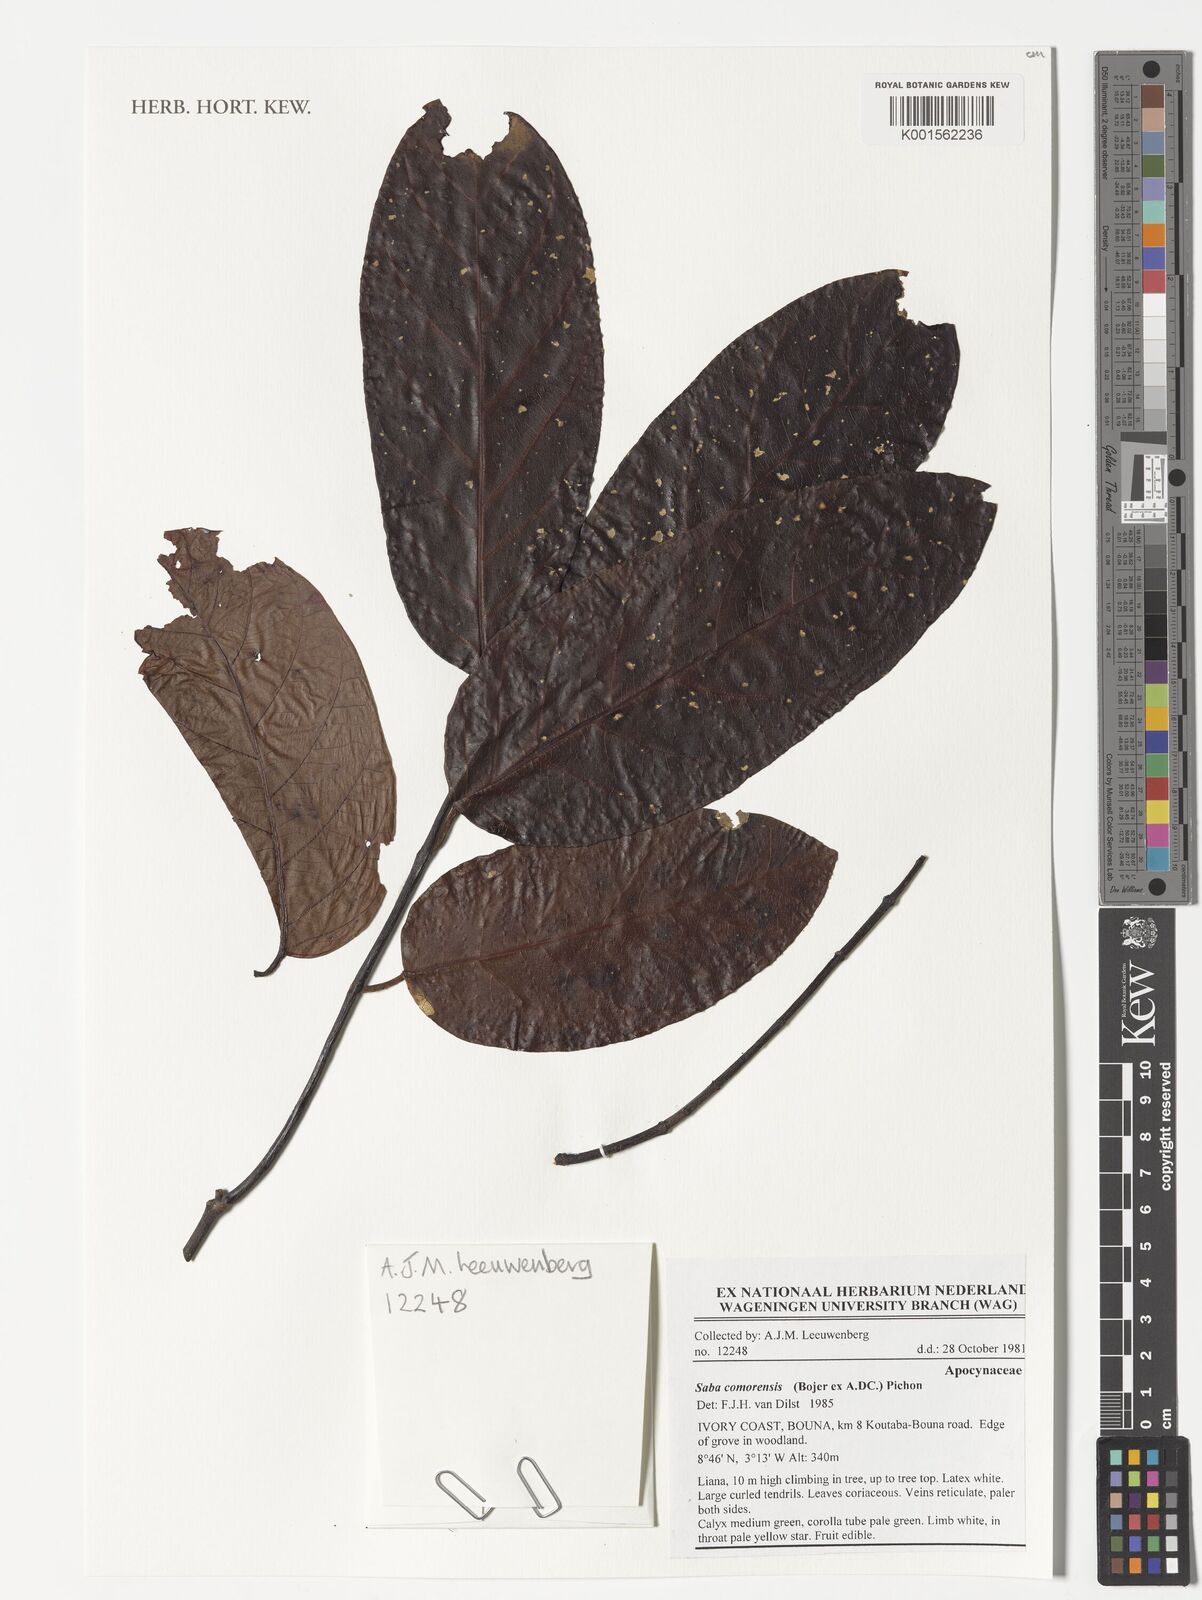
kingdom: Plantae
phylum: Tracheophyta
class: Magnoliopsida
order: Gentianales
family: Apocynaceae
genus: Saba
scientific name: Saba comorensis
